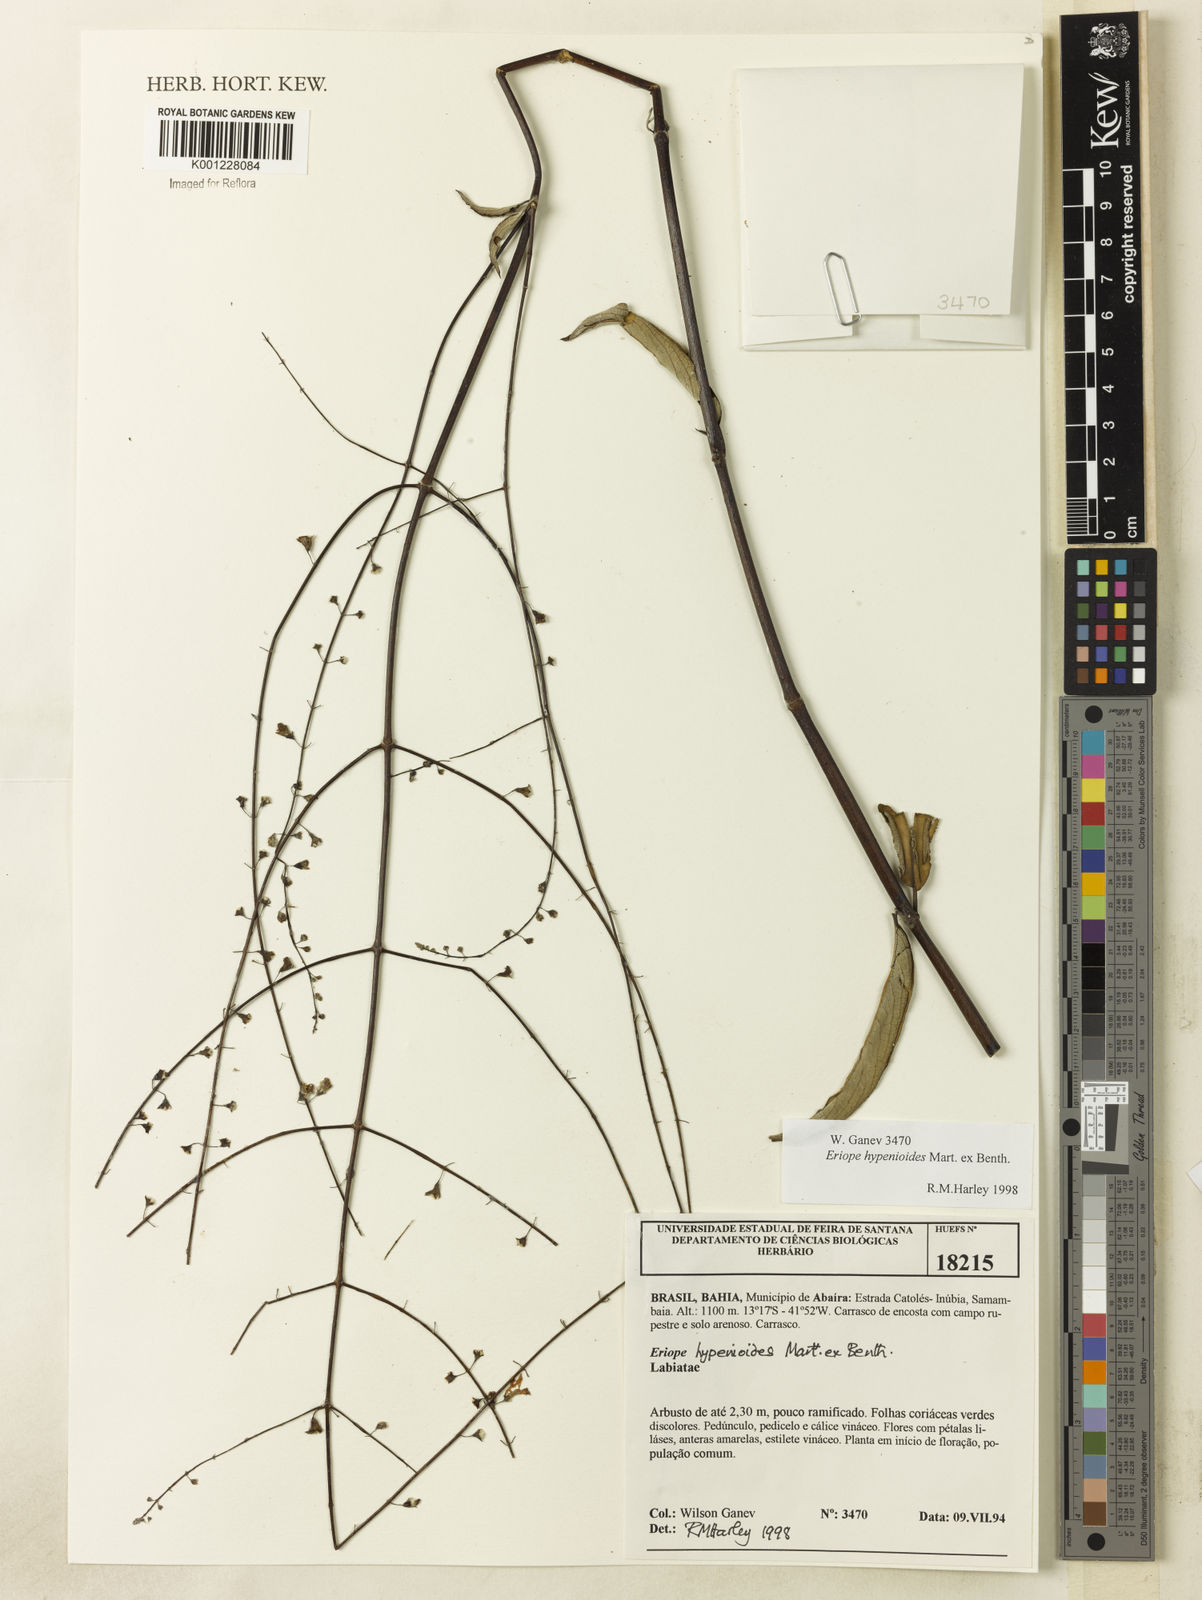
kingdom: Plantae
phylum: Tracheophyta
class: Magnoliopsida
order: Lamiales
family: Lamiaceae
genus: Eriope
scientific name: Eriope hypenioides
